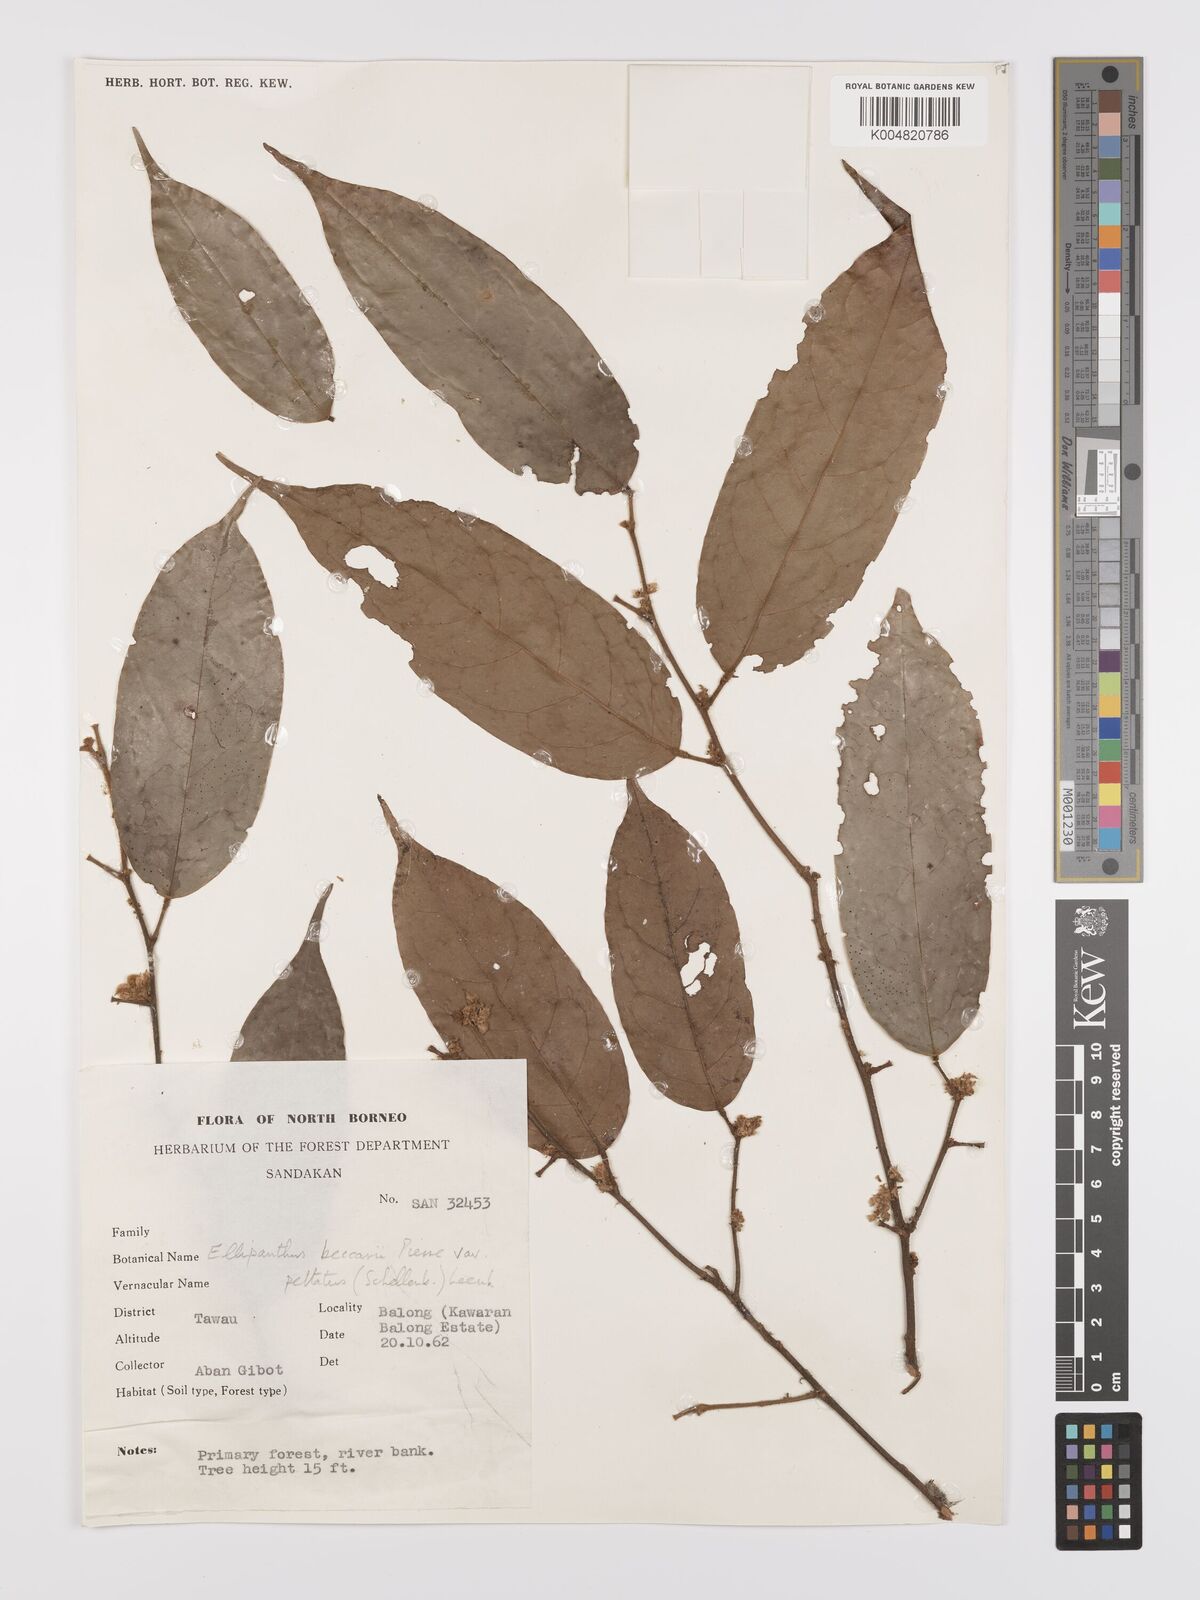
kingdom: Plantae
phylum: Tracheophyta
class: Magnoliopsida
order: Oxalidales
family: Connaraceae
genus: Ellipanthus
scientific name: Ellipanthus beccarii
